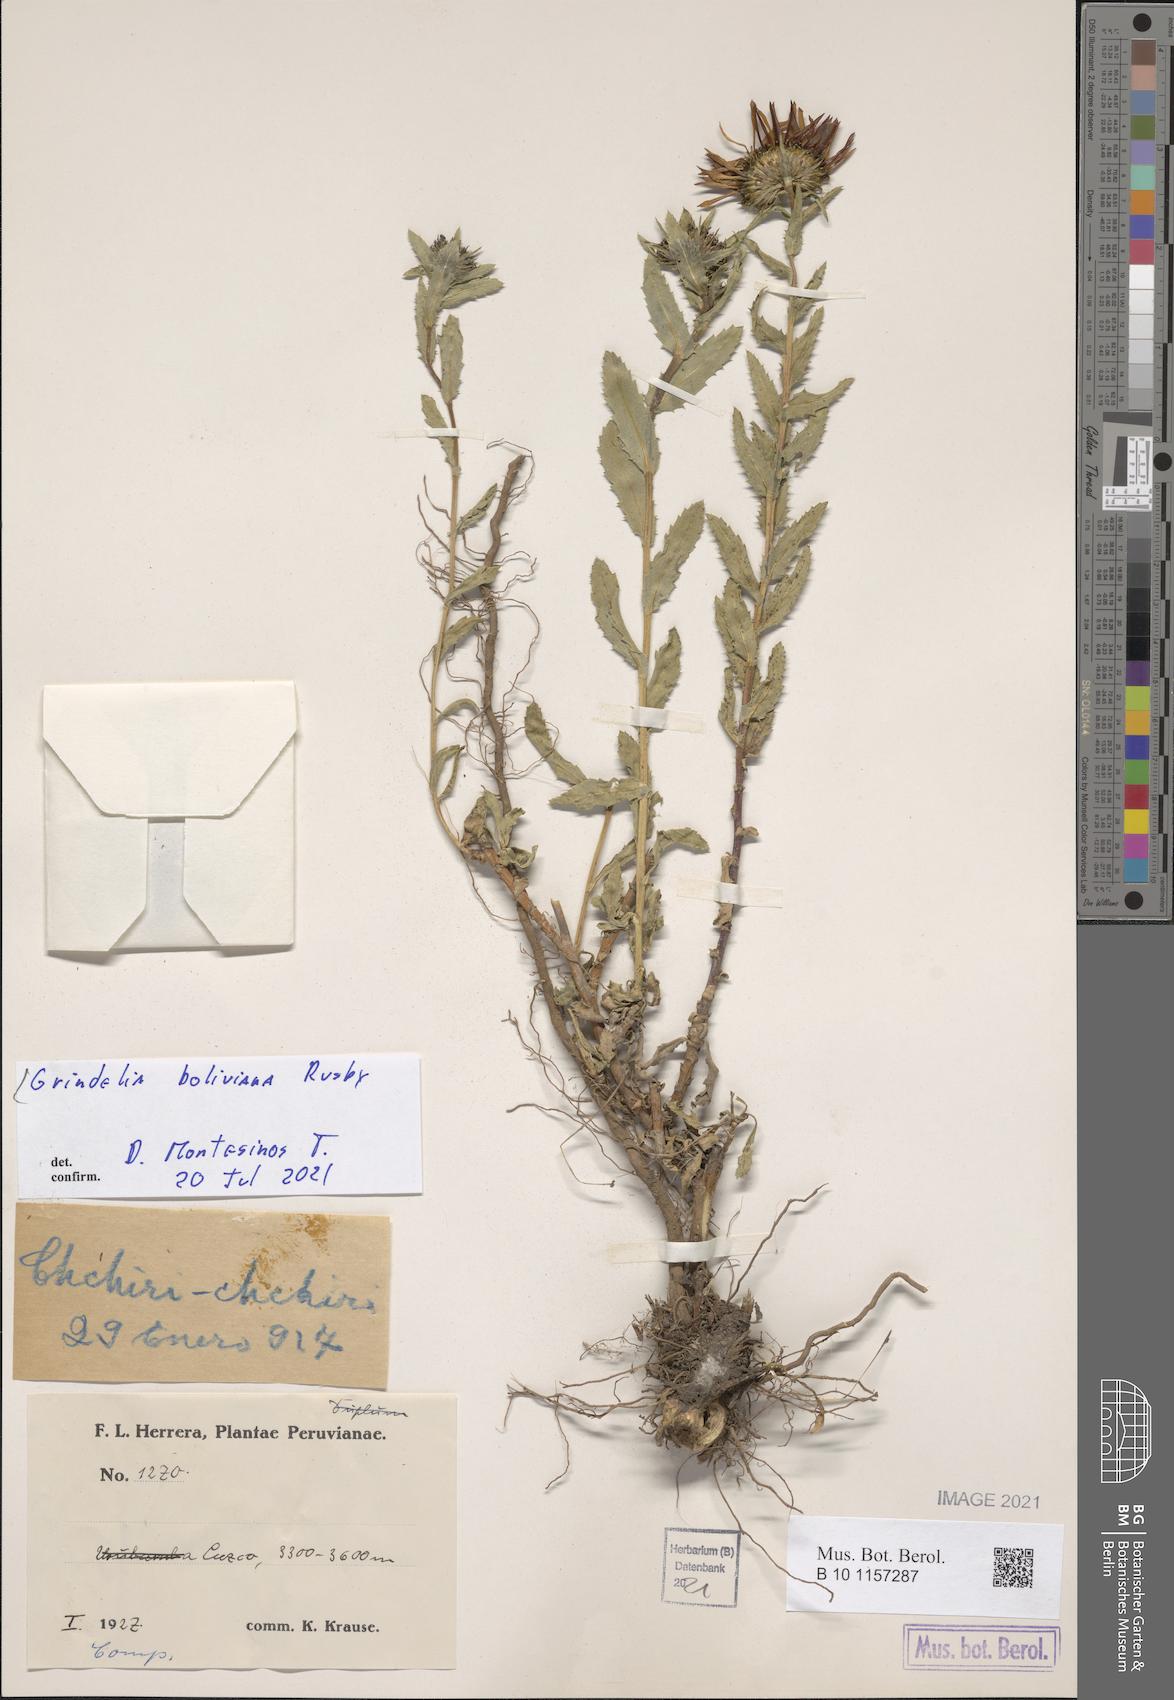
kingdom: Plantae
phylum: Tracheophyta
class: Magnoliopsida
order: Asterales
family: Asteraceae
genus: Grindelia
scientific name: Grindelia boliviana
